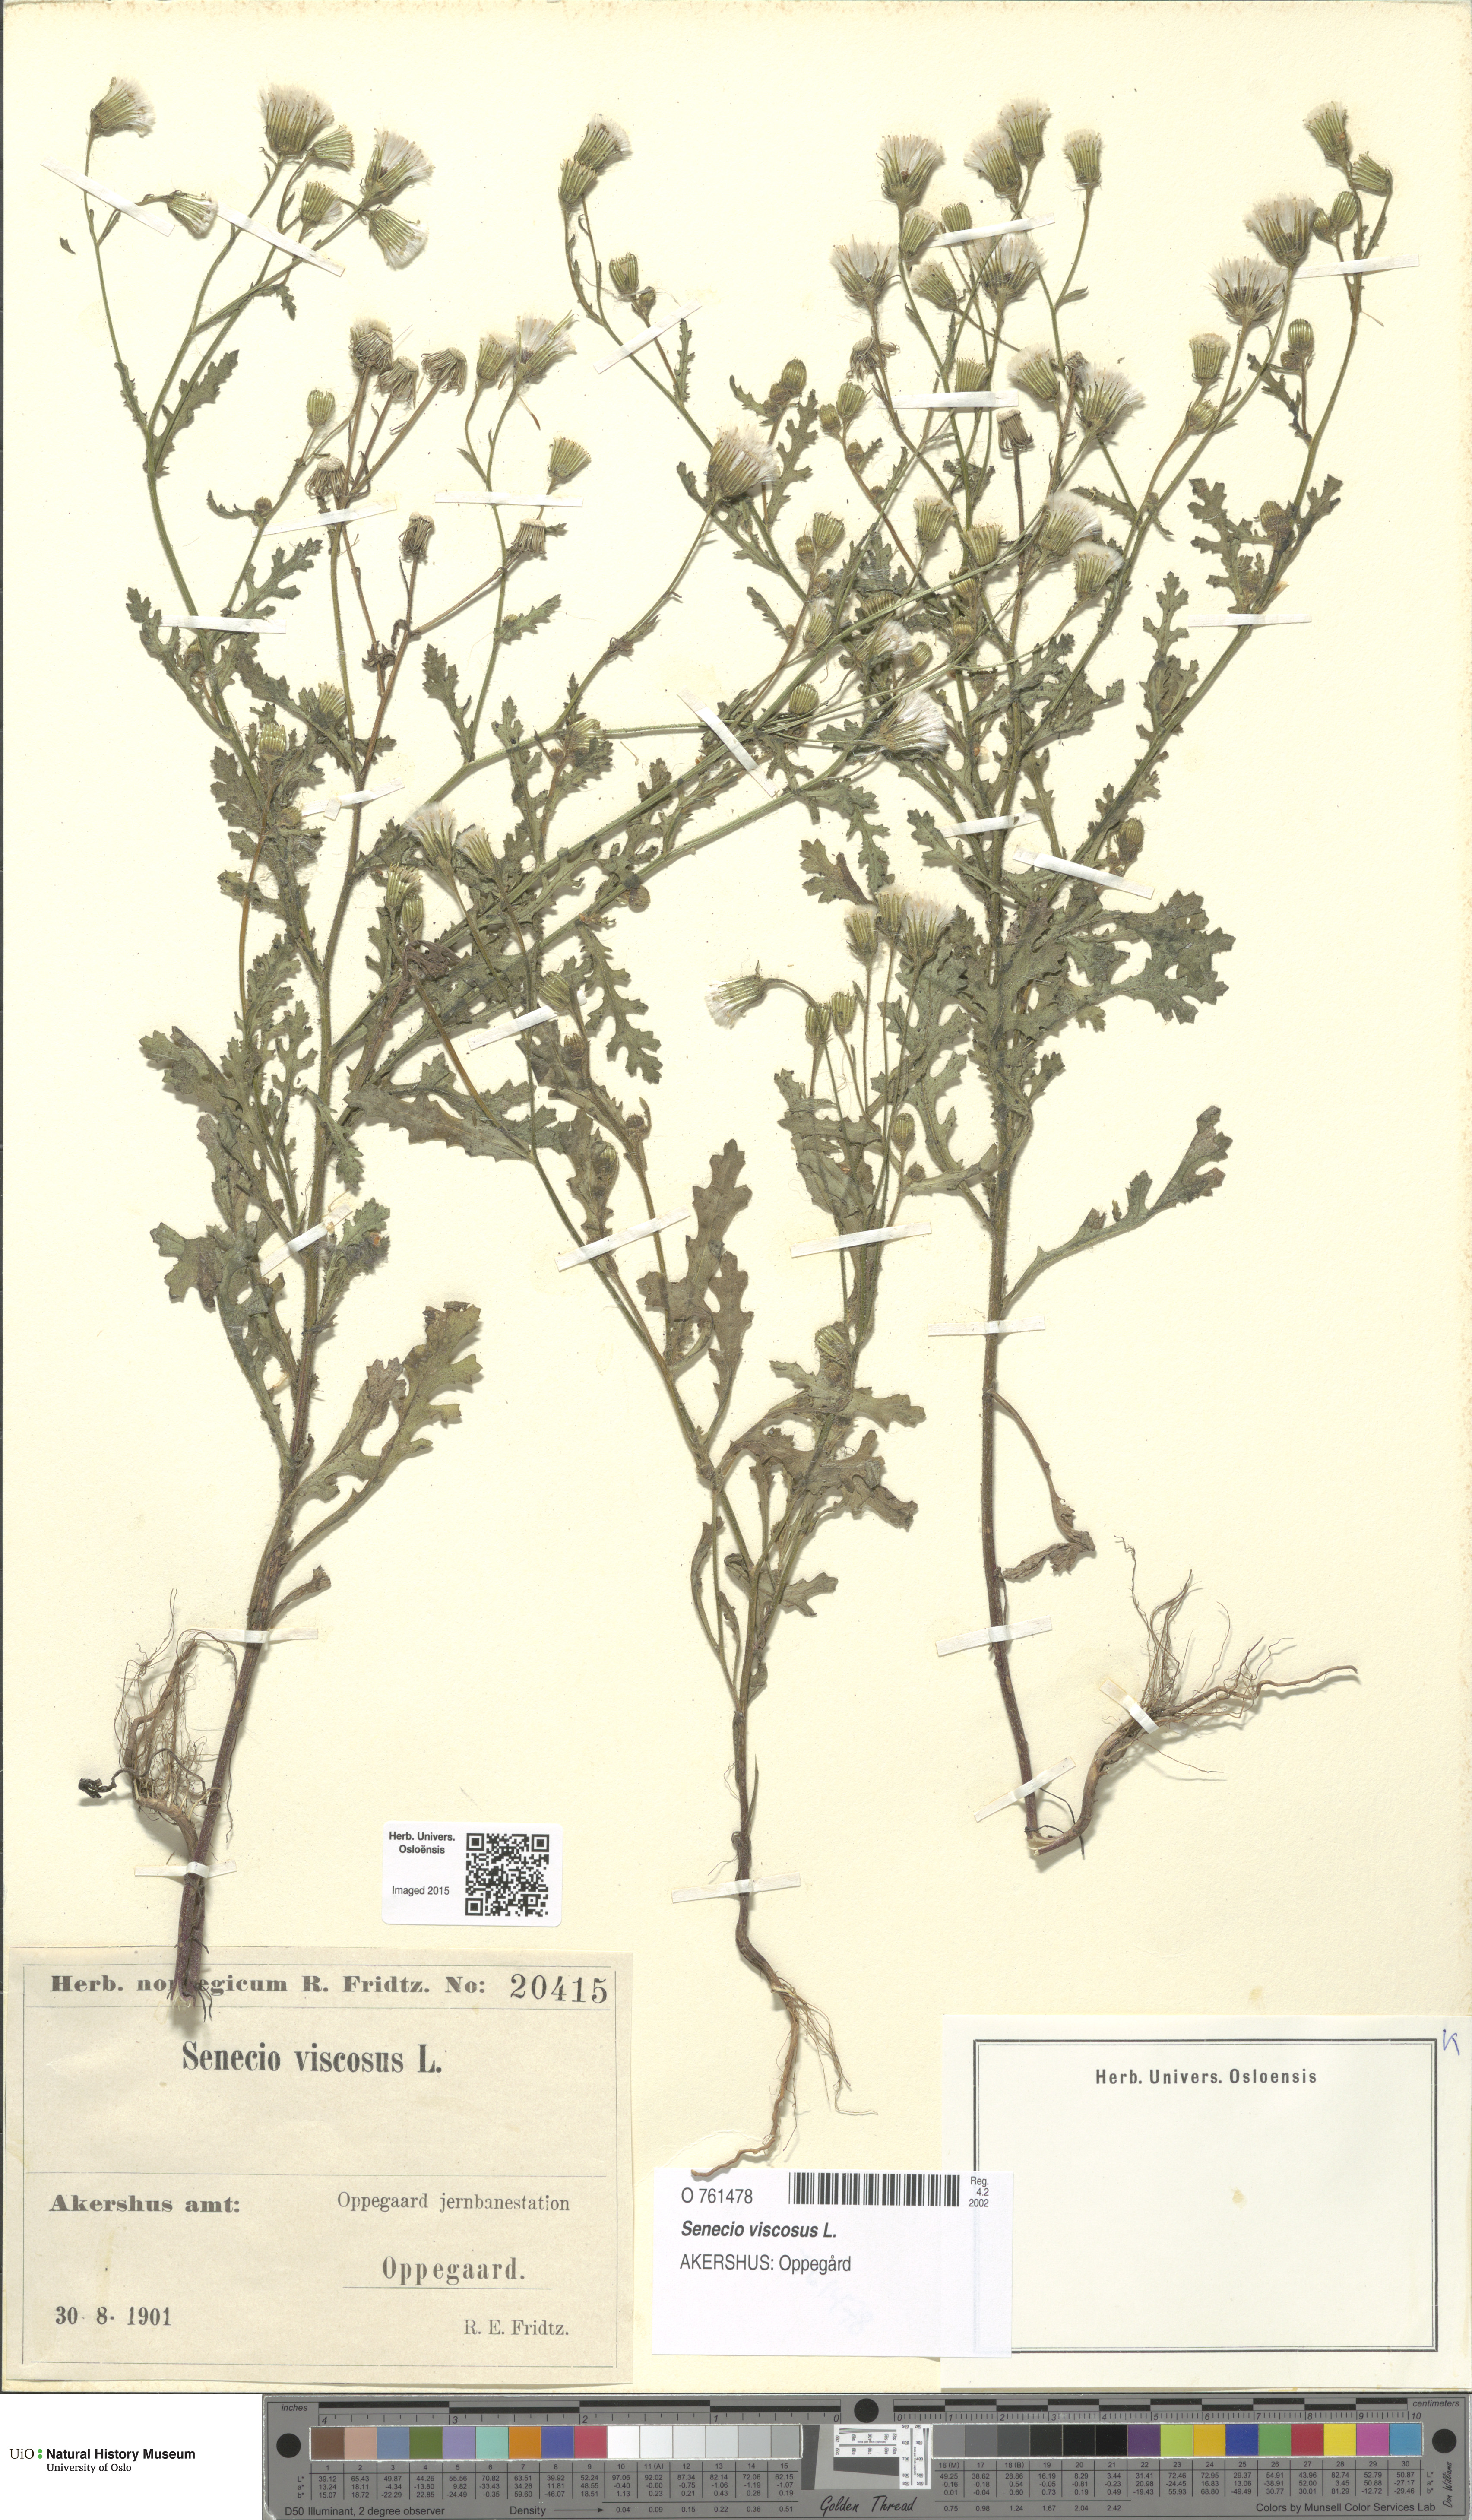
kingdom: Plantae
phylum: Tracheophyta
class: Magnoliopsida
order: Asterales
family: Asteraceae
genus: Senecio
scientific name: Senecio viscosus
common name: Sticky groundsel
